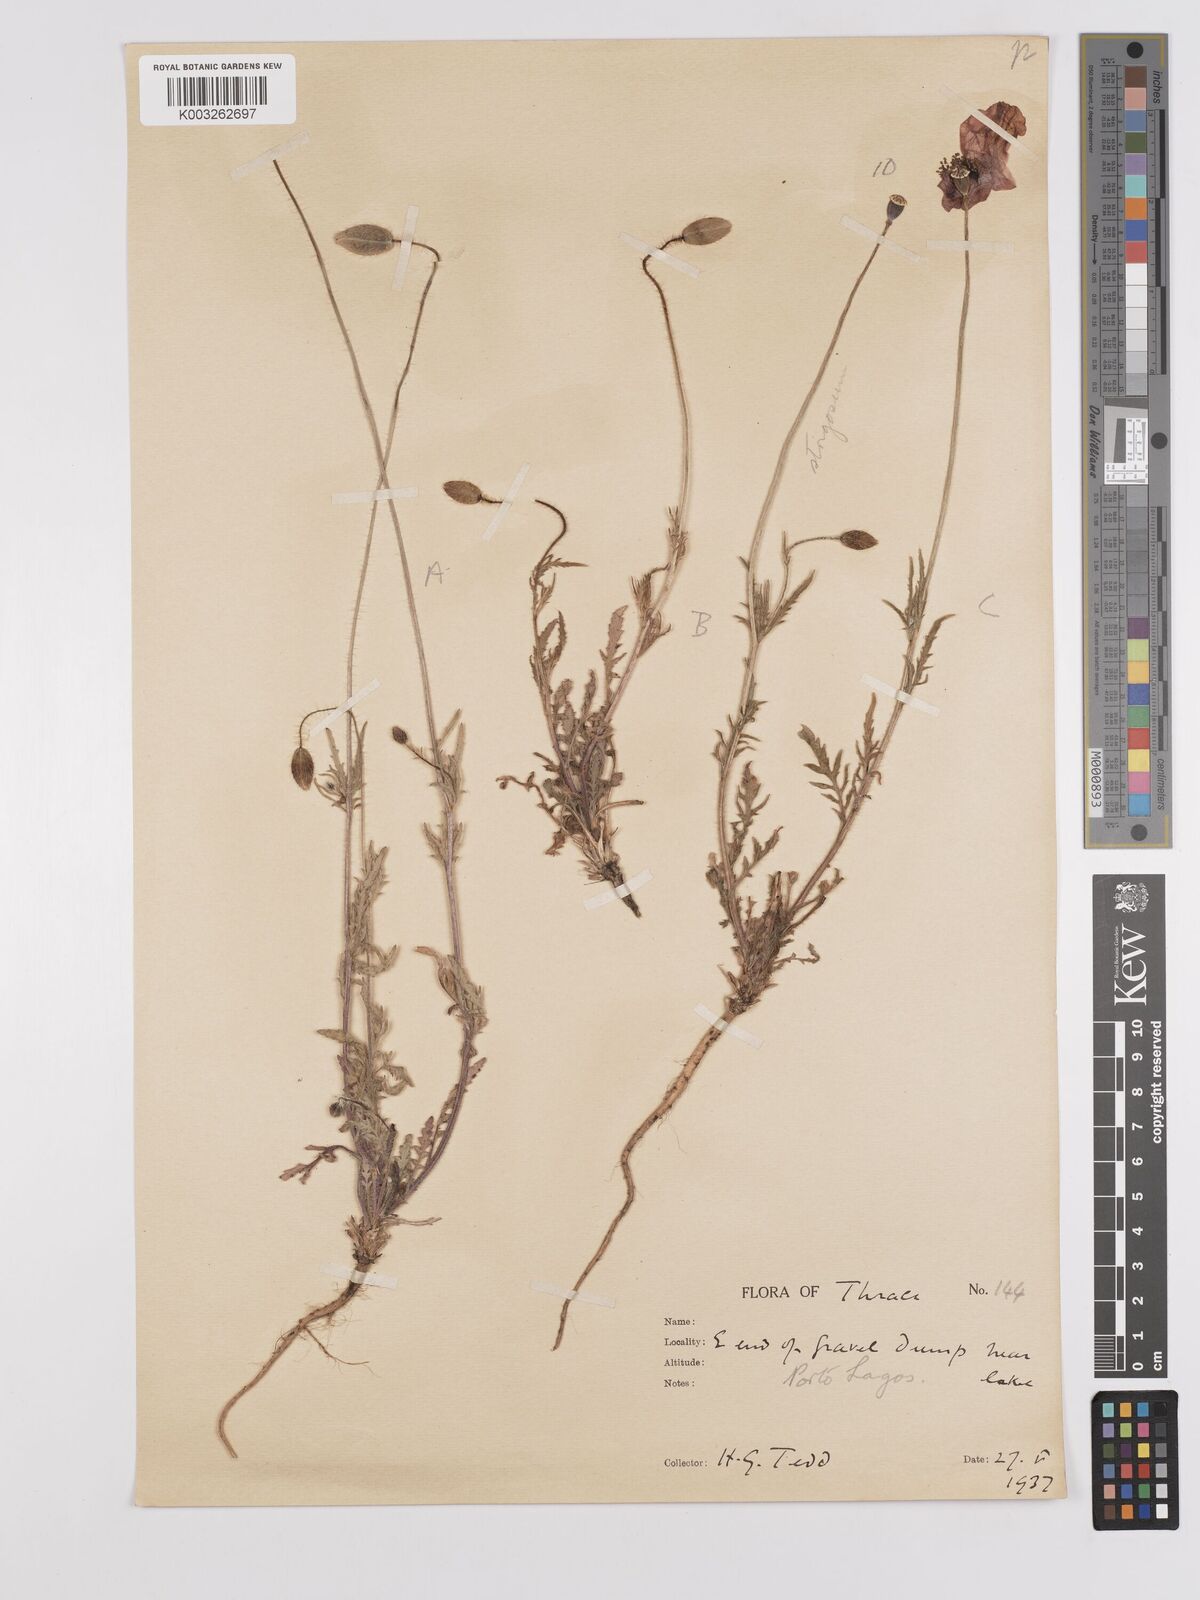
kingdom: Plantae
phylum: Tracheophyta
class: Magnoliopsida
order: Ranunculales
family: Papaveraceae
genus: Papaver
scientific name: Papaver
